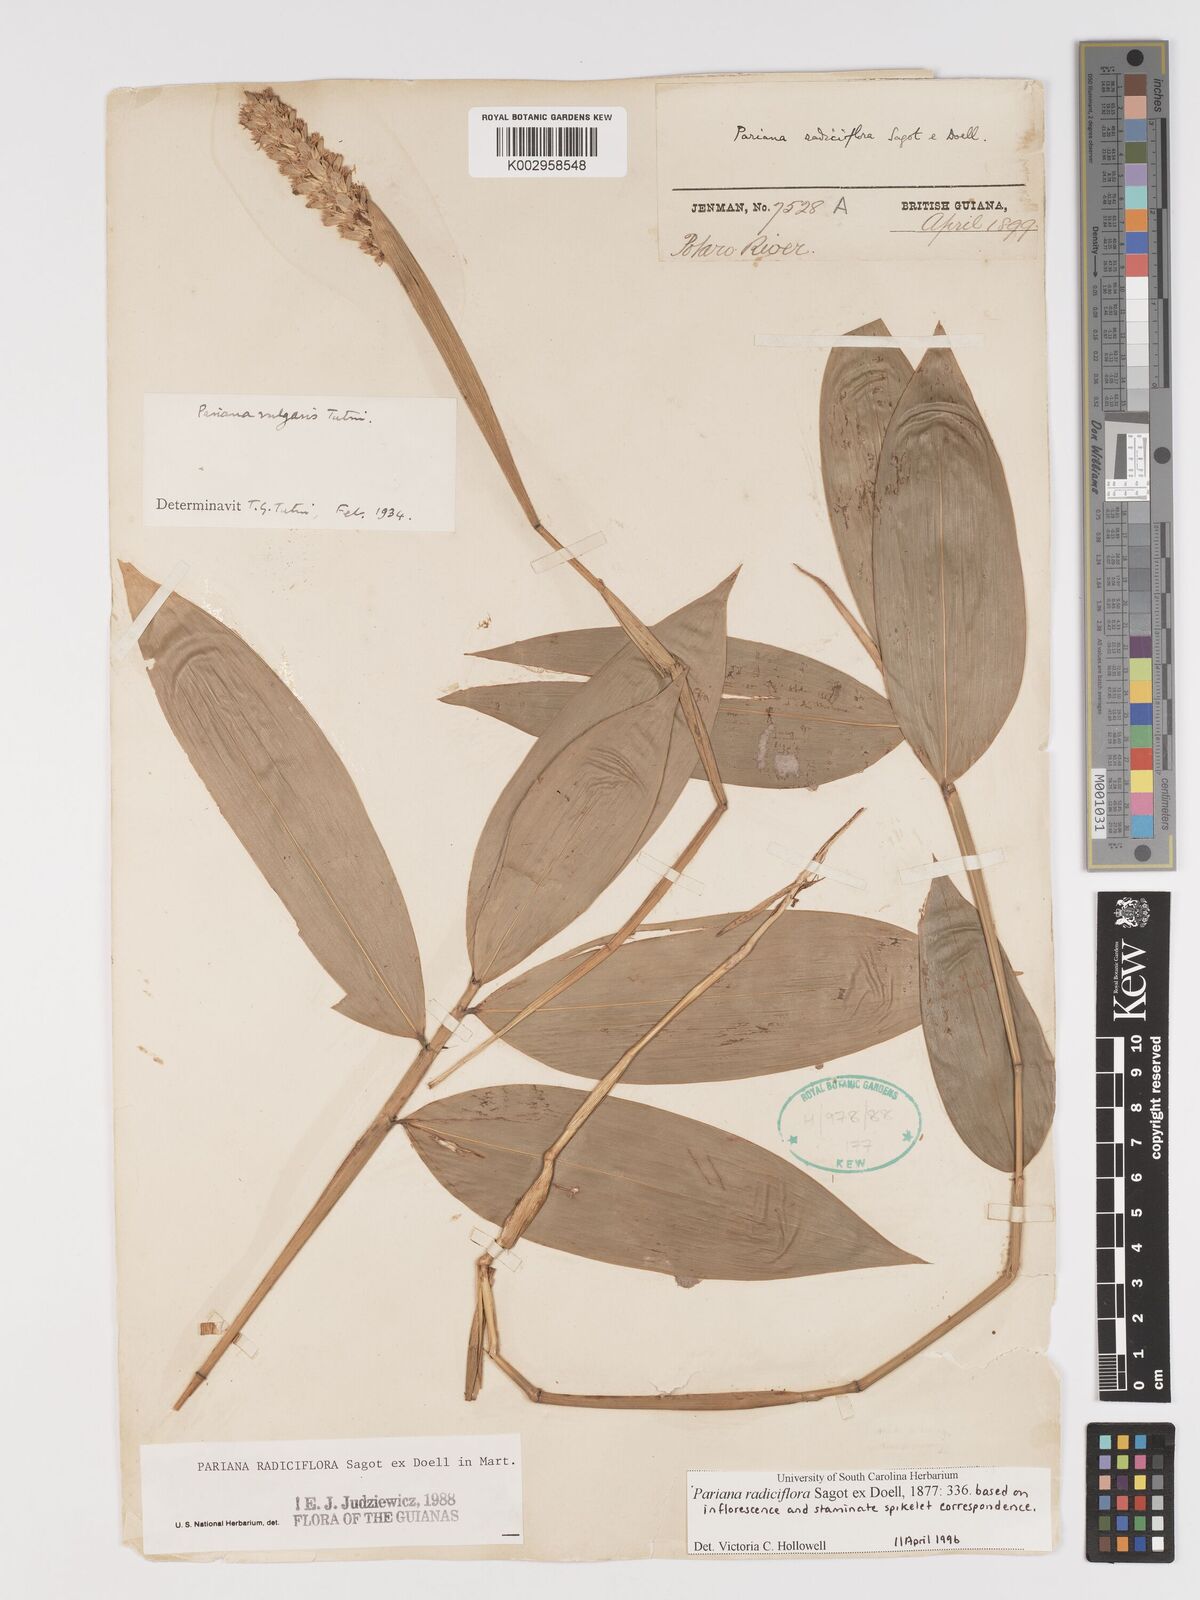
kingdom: Plantae
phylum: Tracheophyta
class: Liliopsida
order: Poales
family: Poaceae
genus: Pariana
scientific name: Pariana radiciflora
